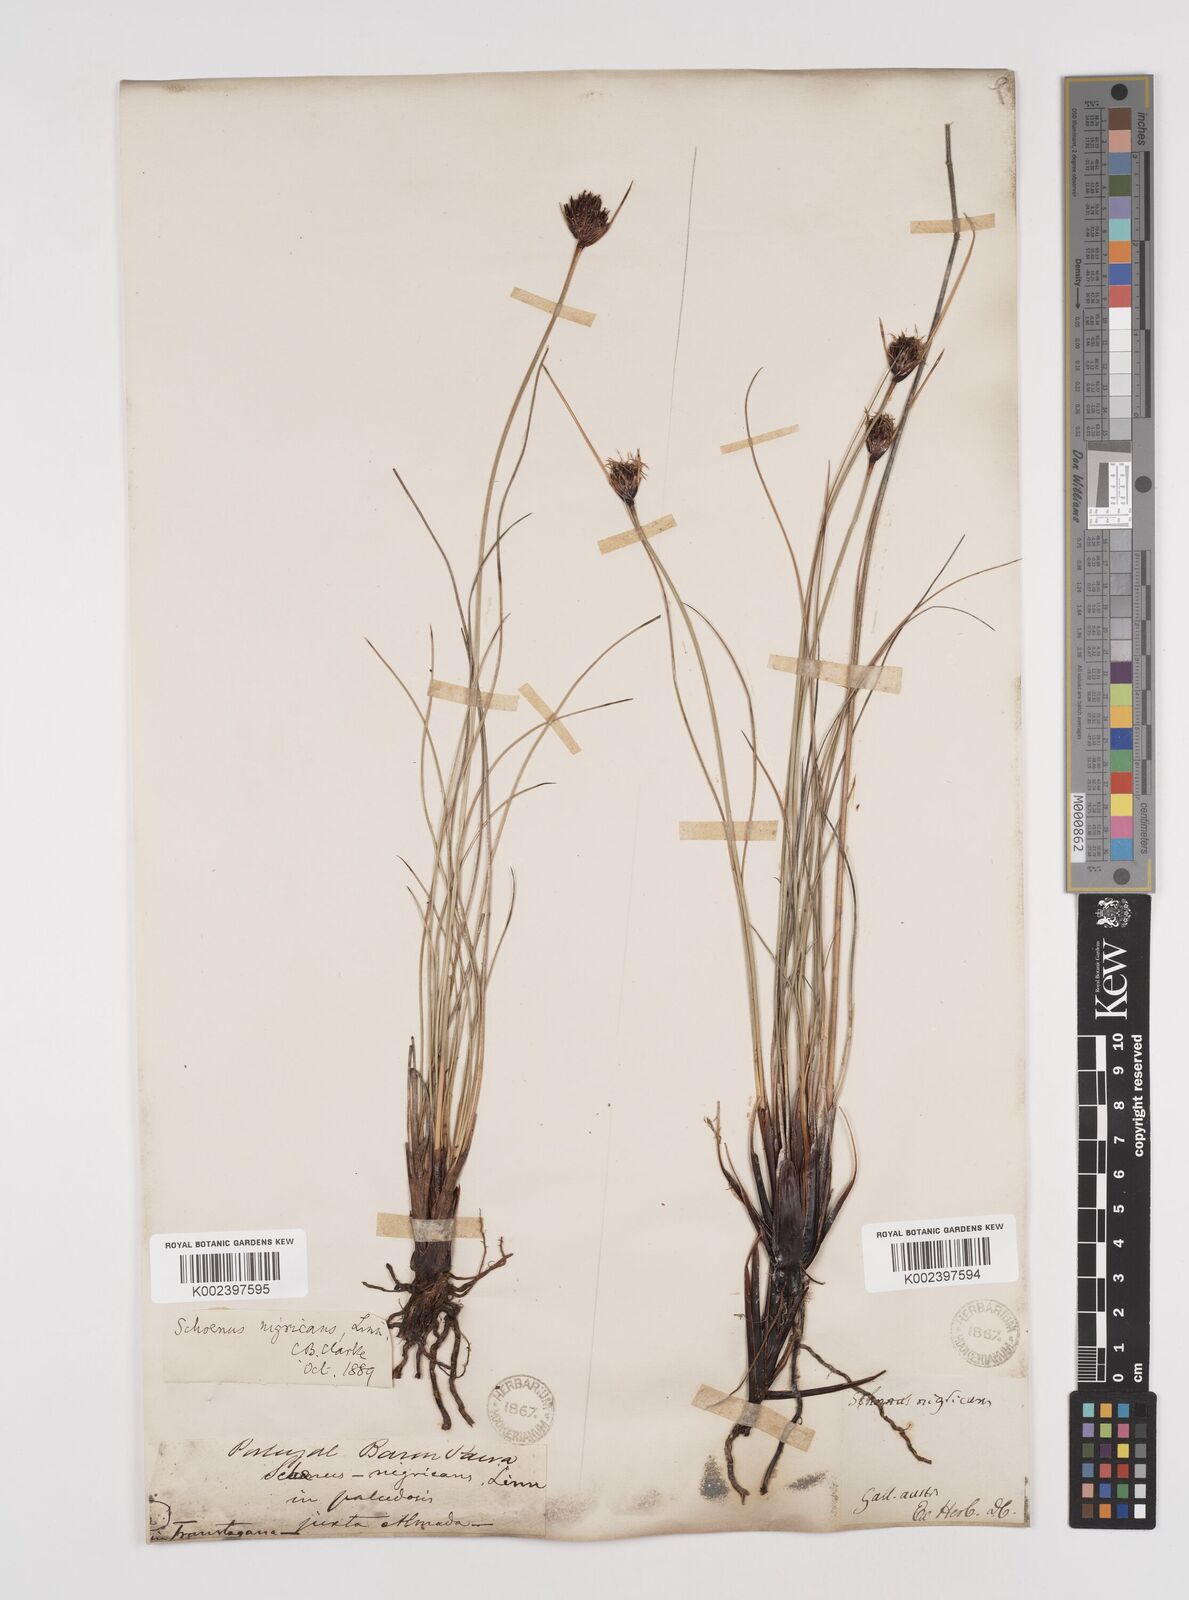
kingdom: Plantae
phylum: Tracheophyta
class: Liliopsida
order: Poales
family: Cyperaceae
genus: Schoenus
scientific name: Schoenus nigricans
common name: Black bog-rush
